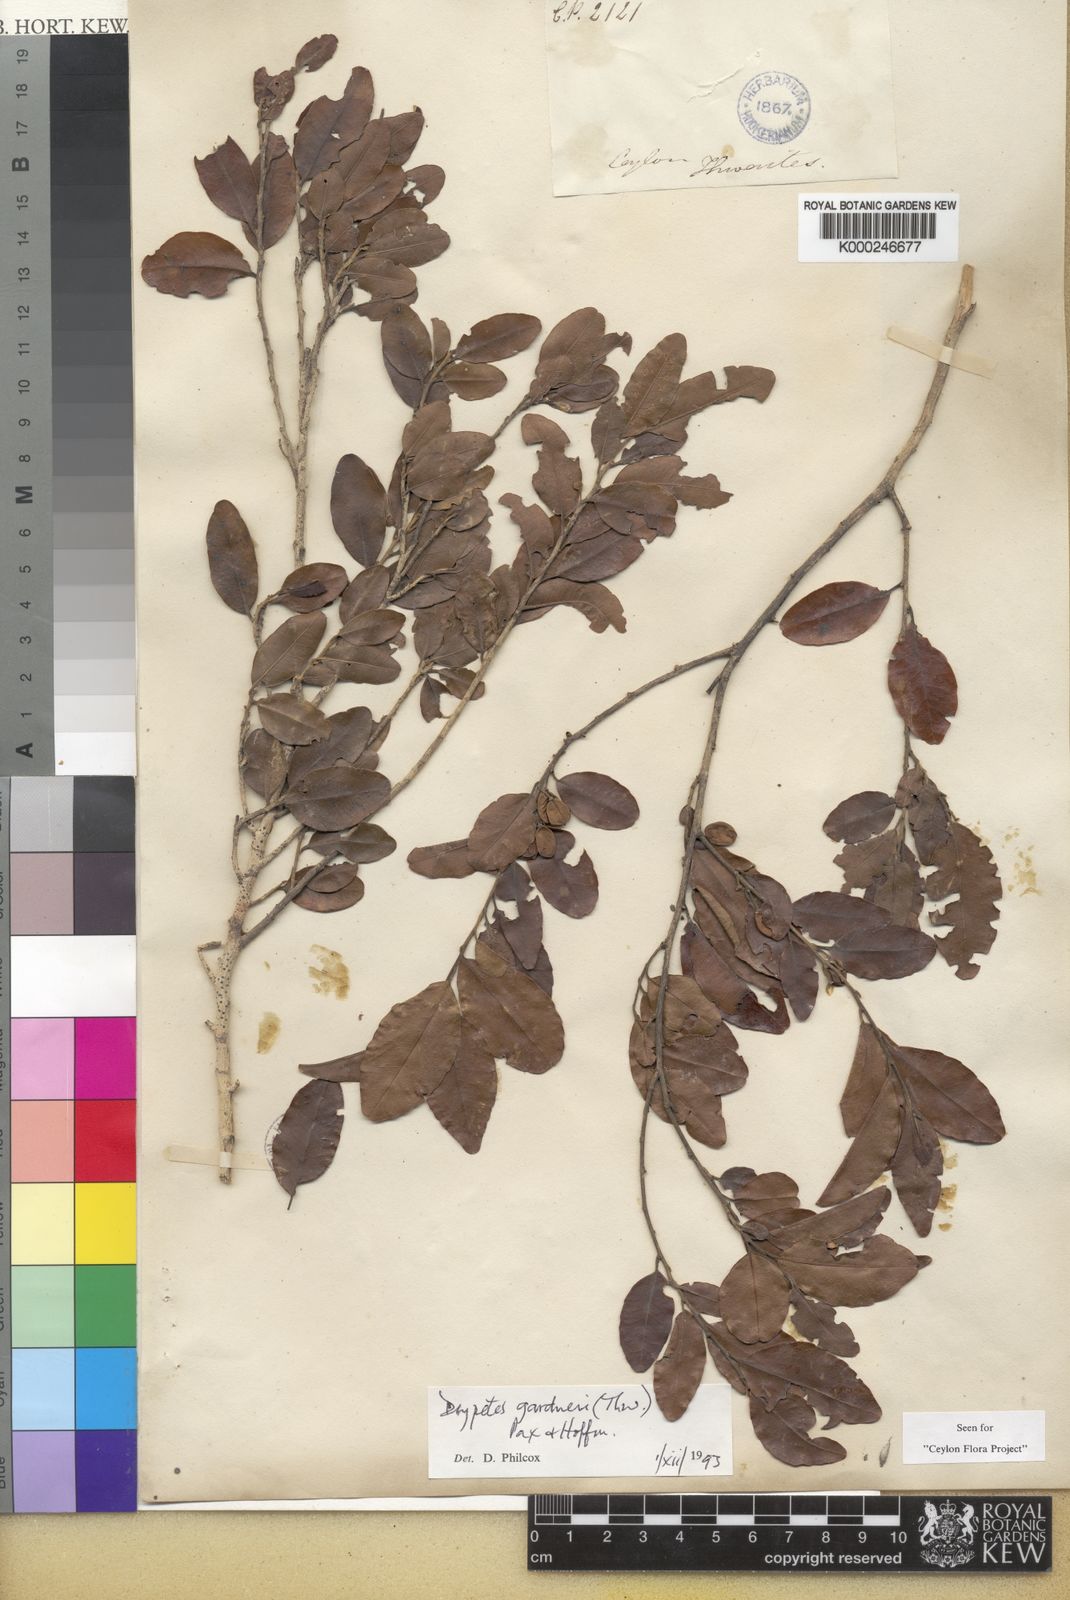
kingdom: Plantae
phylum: Tracheophyta
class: Magnoliopsida
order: Malpighiales
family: Putranjivaceae
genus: Drypetes
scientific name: Drypetes gardneri
